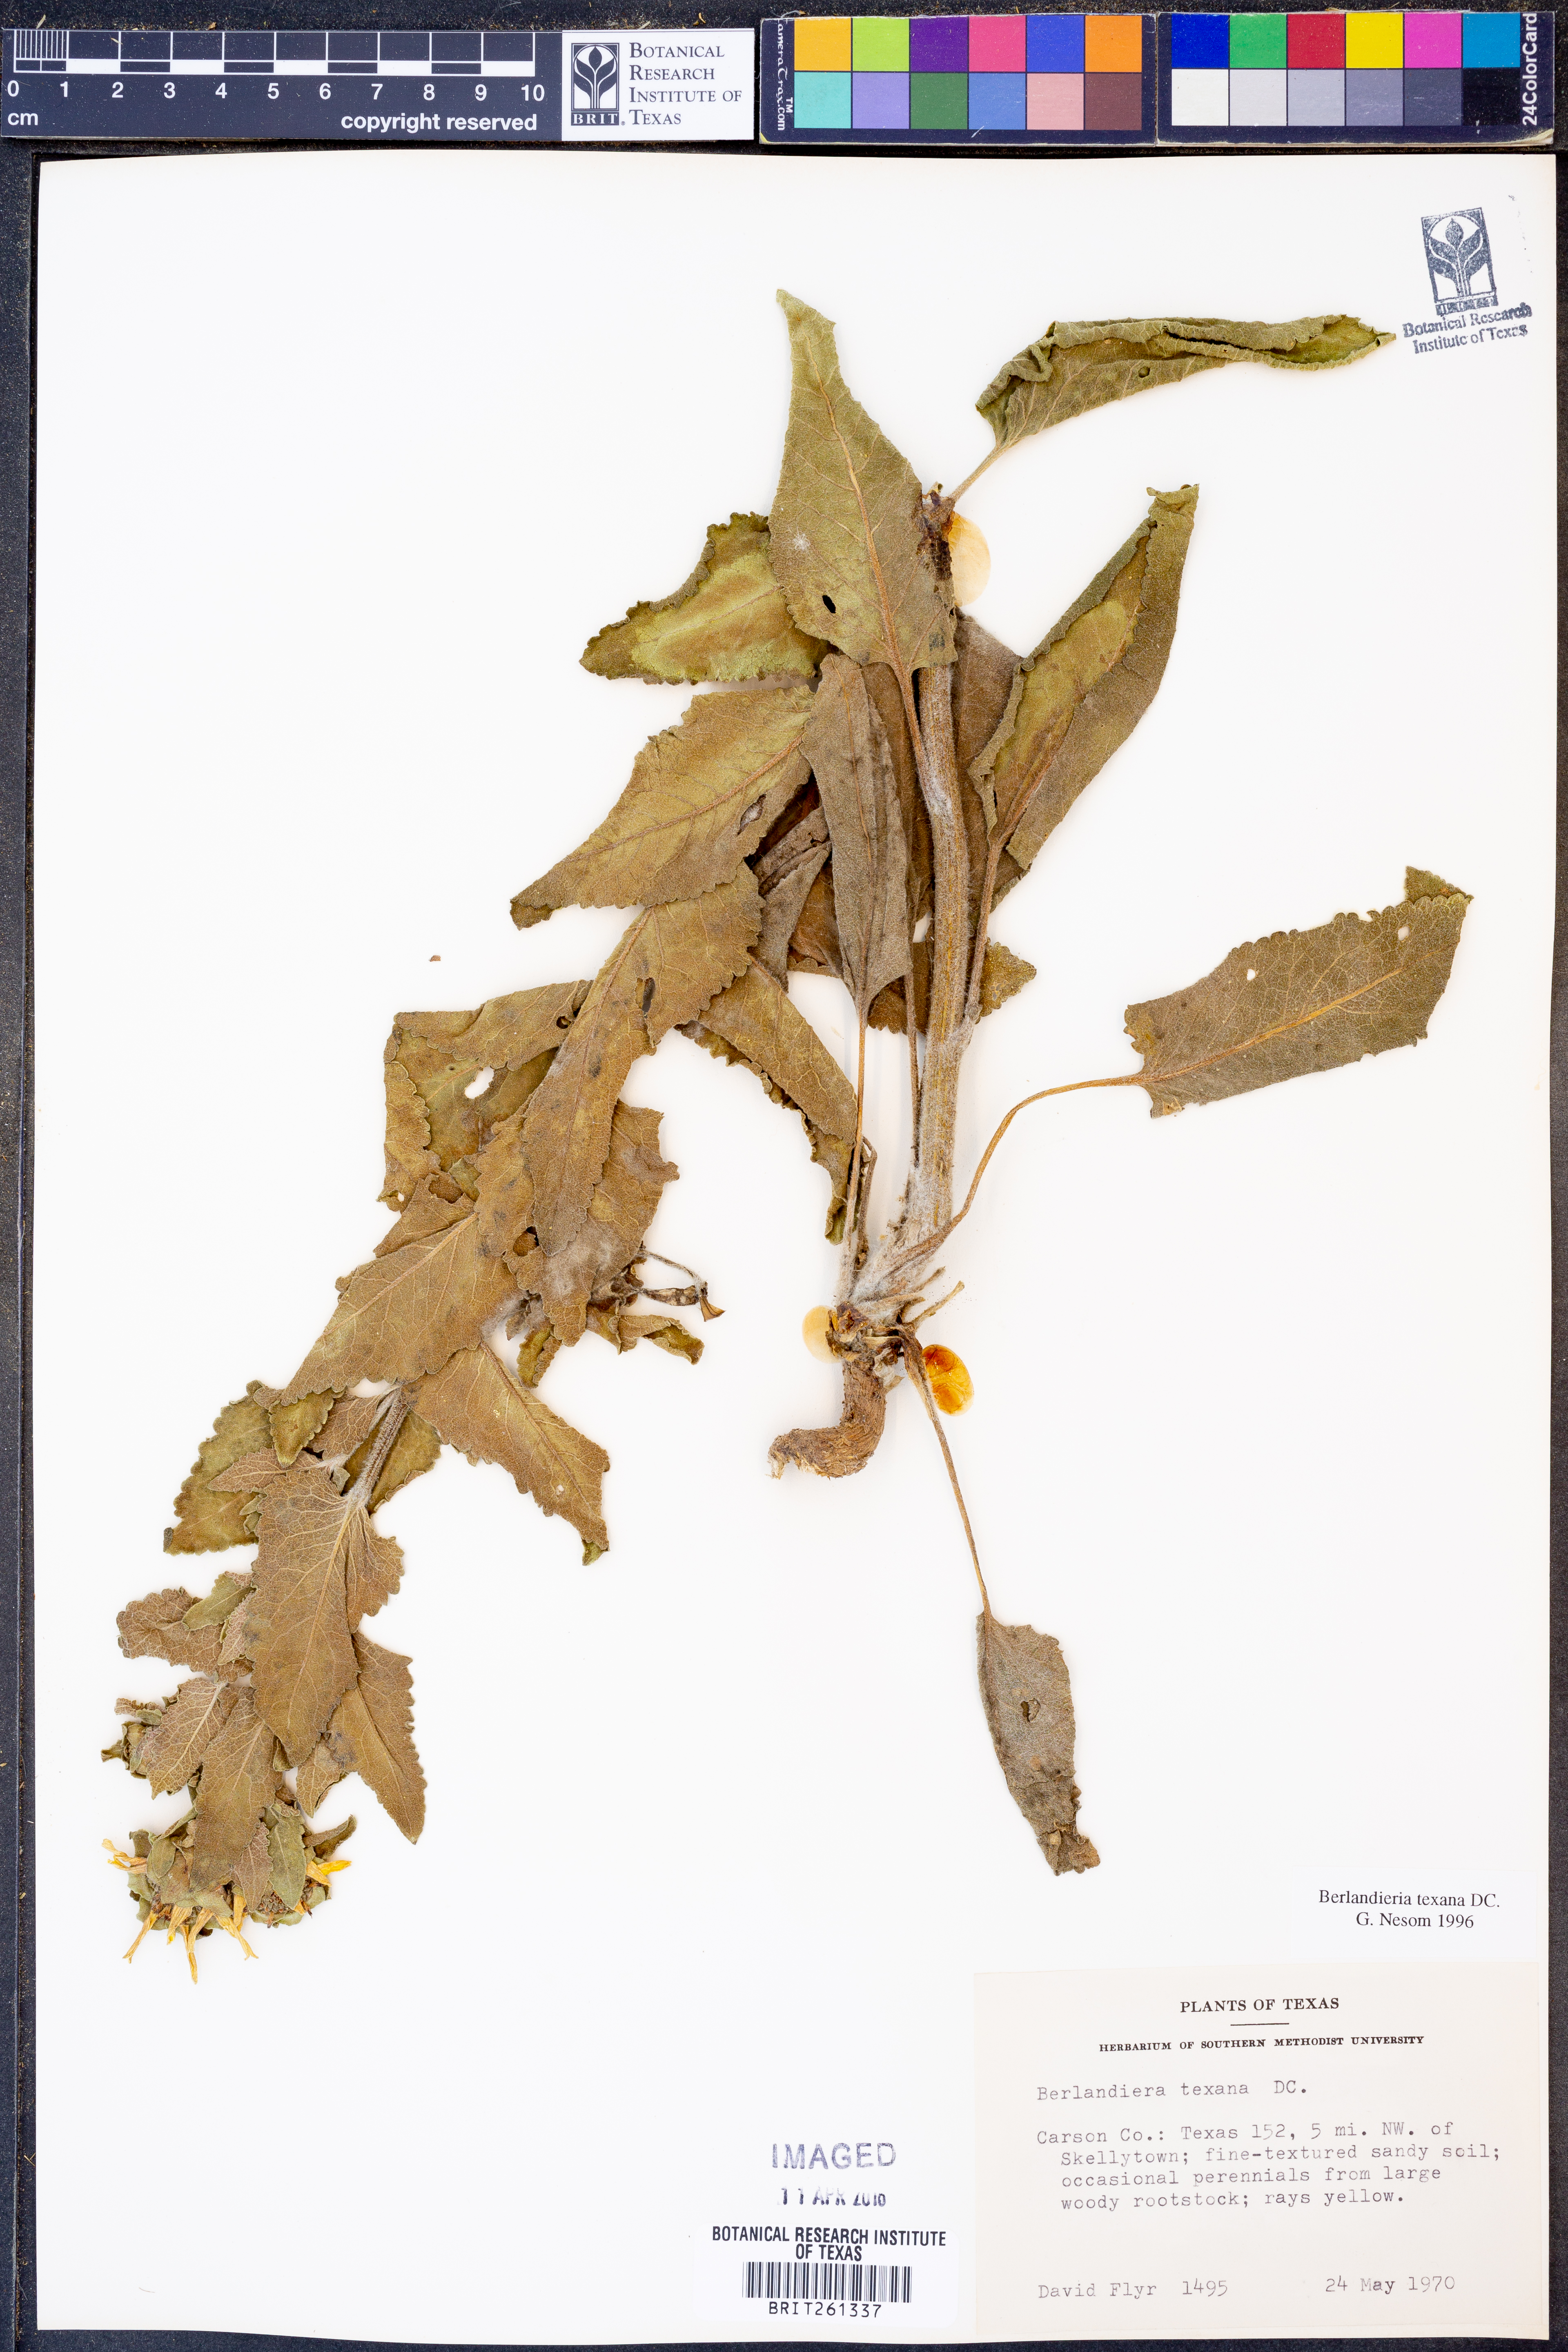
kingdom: Plantae
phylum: Tracheophyta
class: Magnoliopsida
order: Asterales
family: Asteraceae
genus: Berlandiera
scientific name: Berlandiera texana
